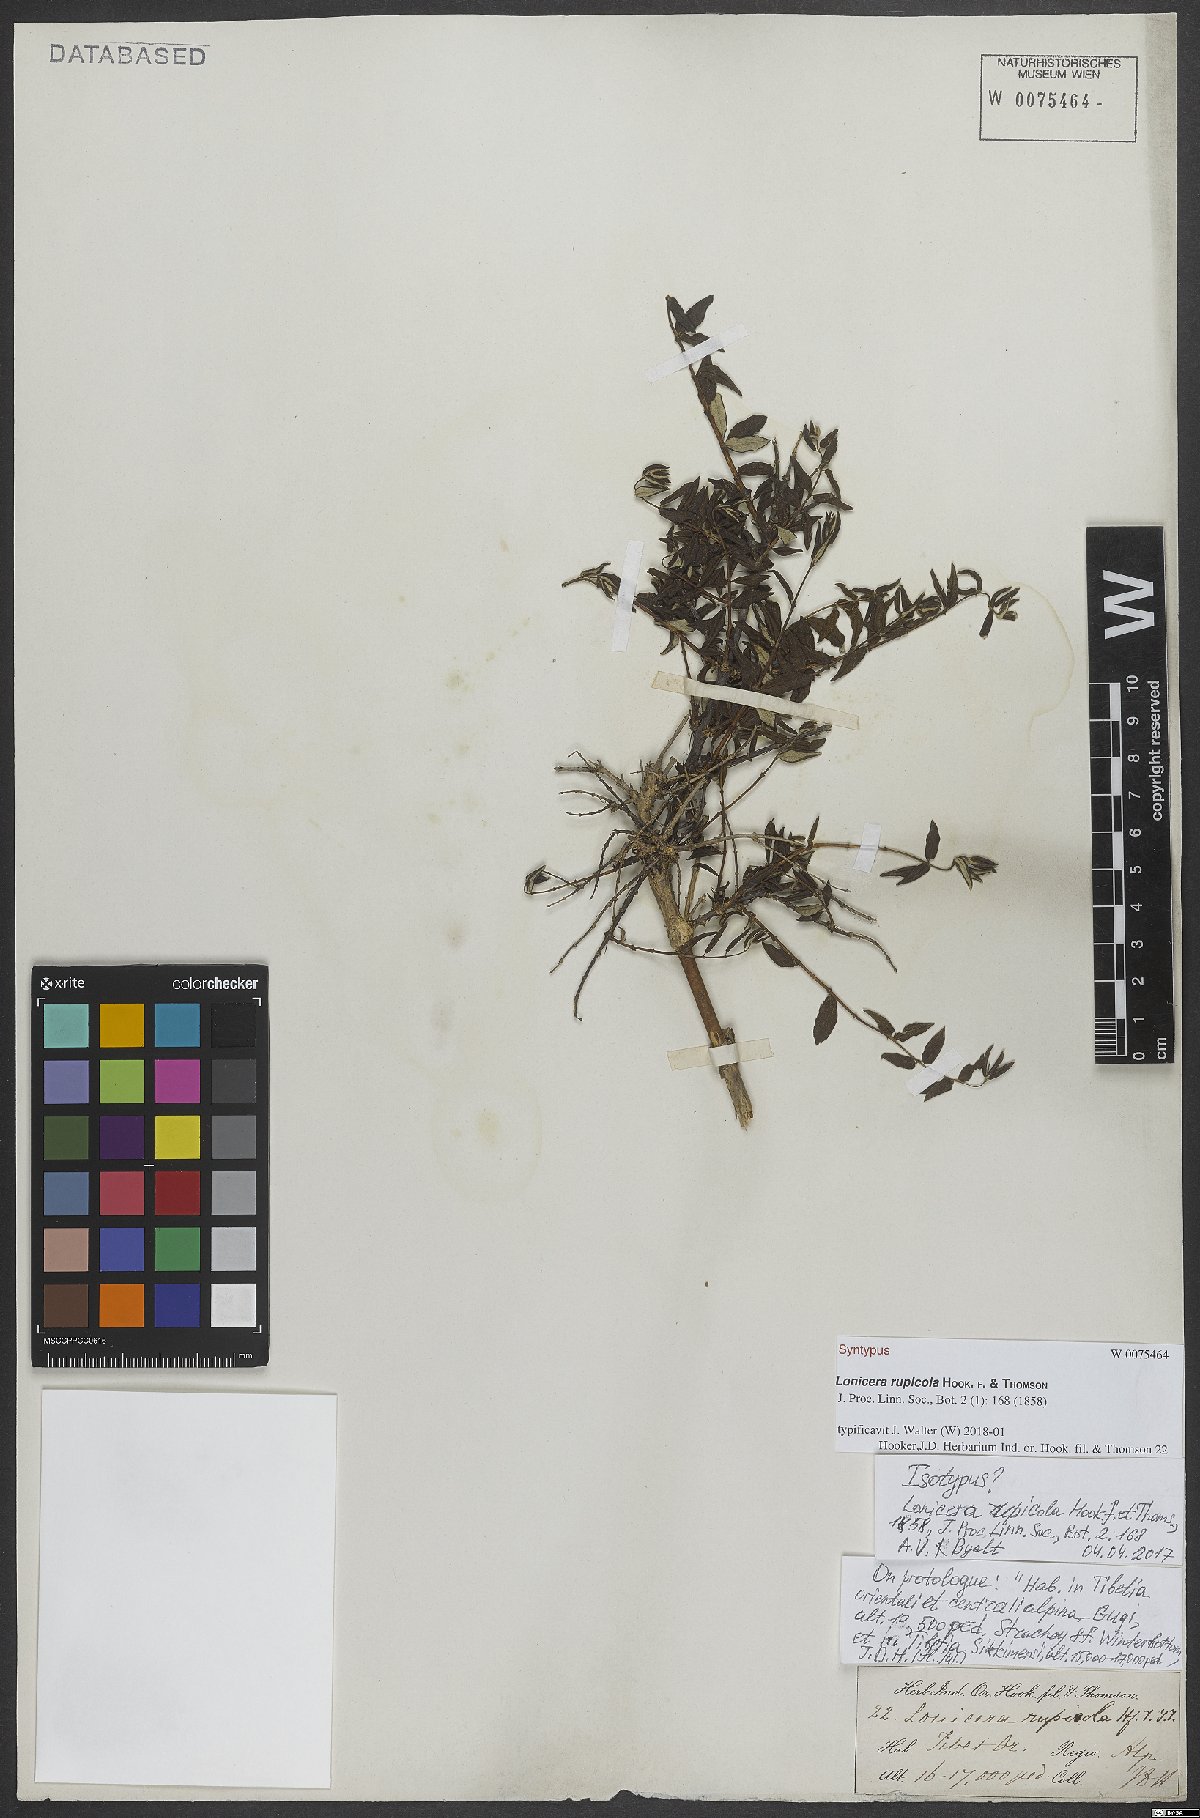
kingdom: Plantae
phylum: Tracheophyta
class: Magnoliopsida
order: Dipsacales
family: Caprifoliaceae
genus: Lonicera
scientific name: Lonicera rupicola
